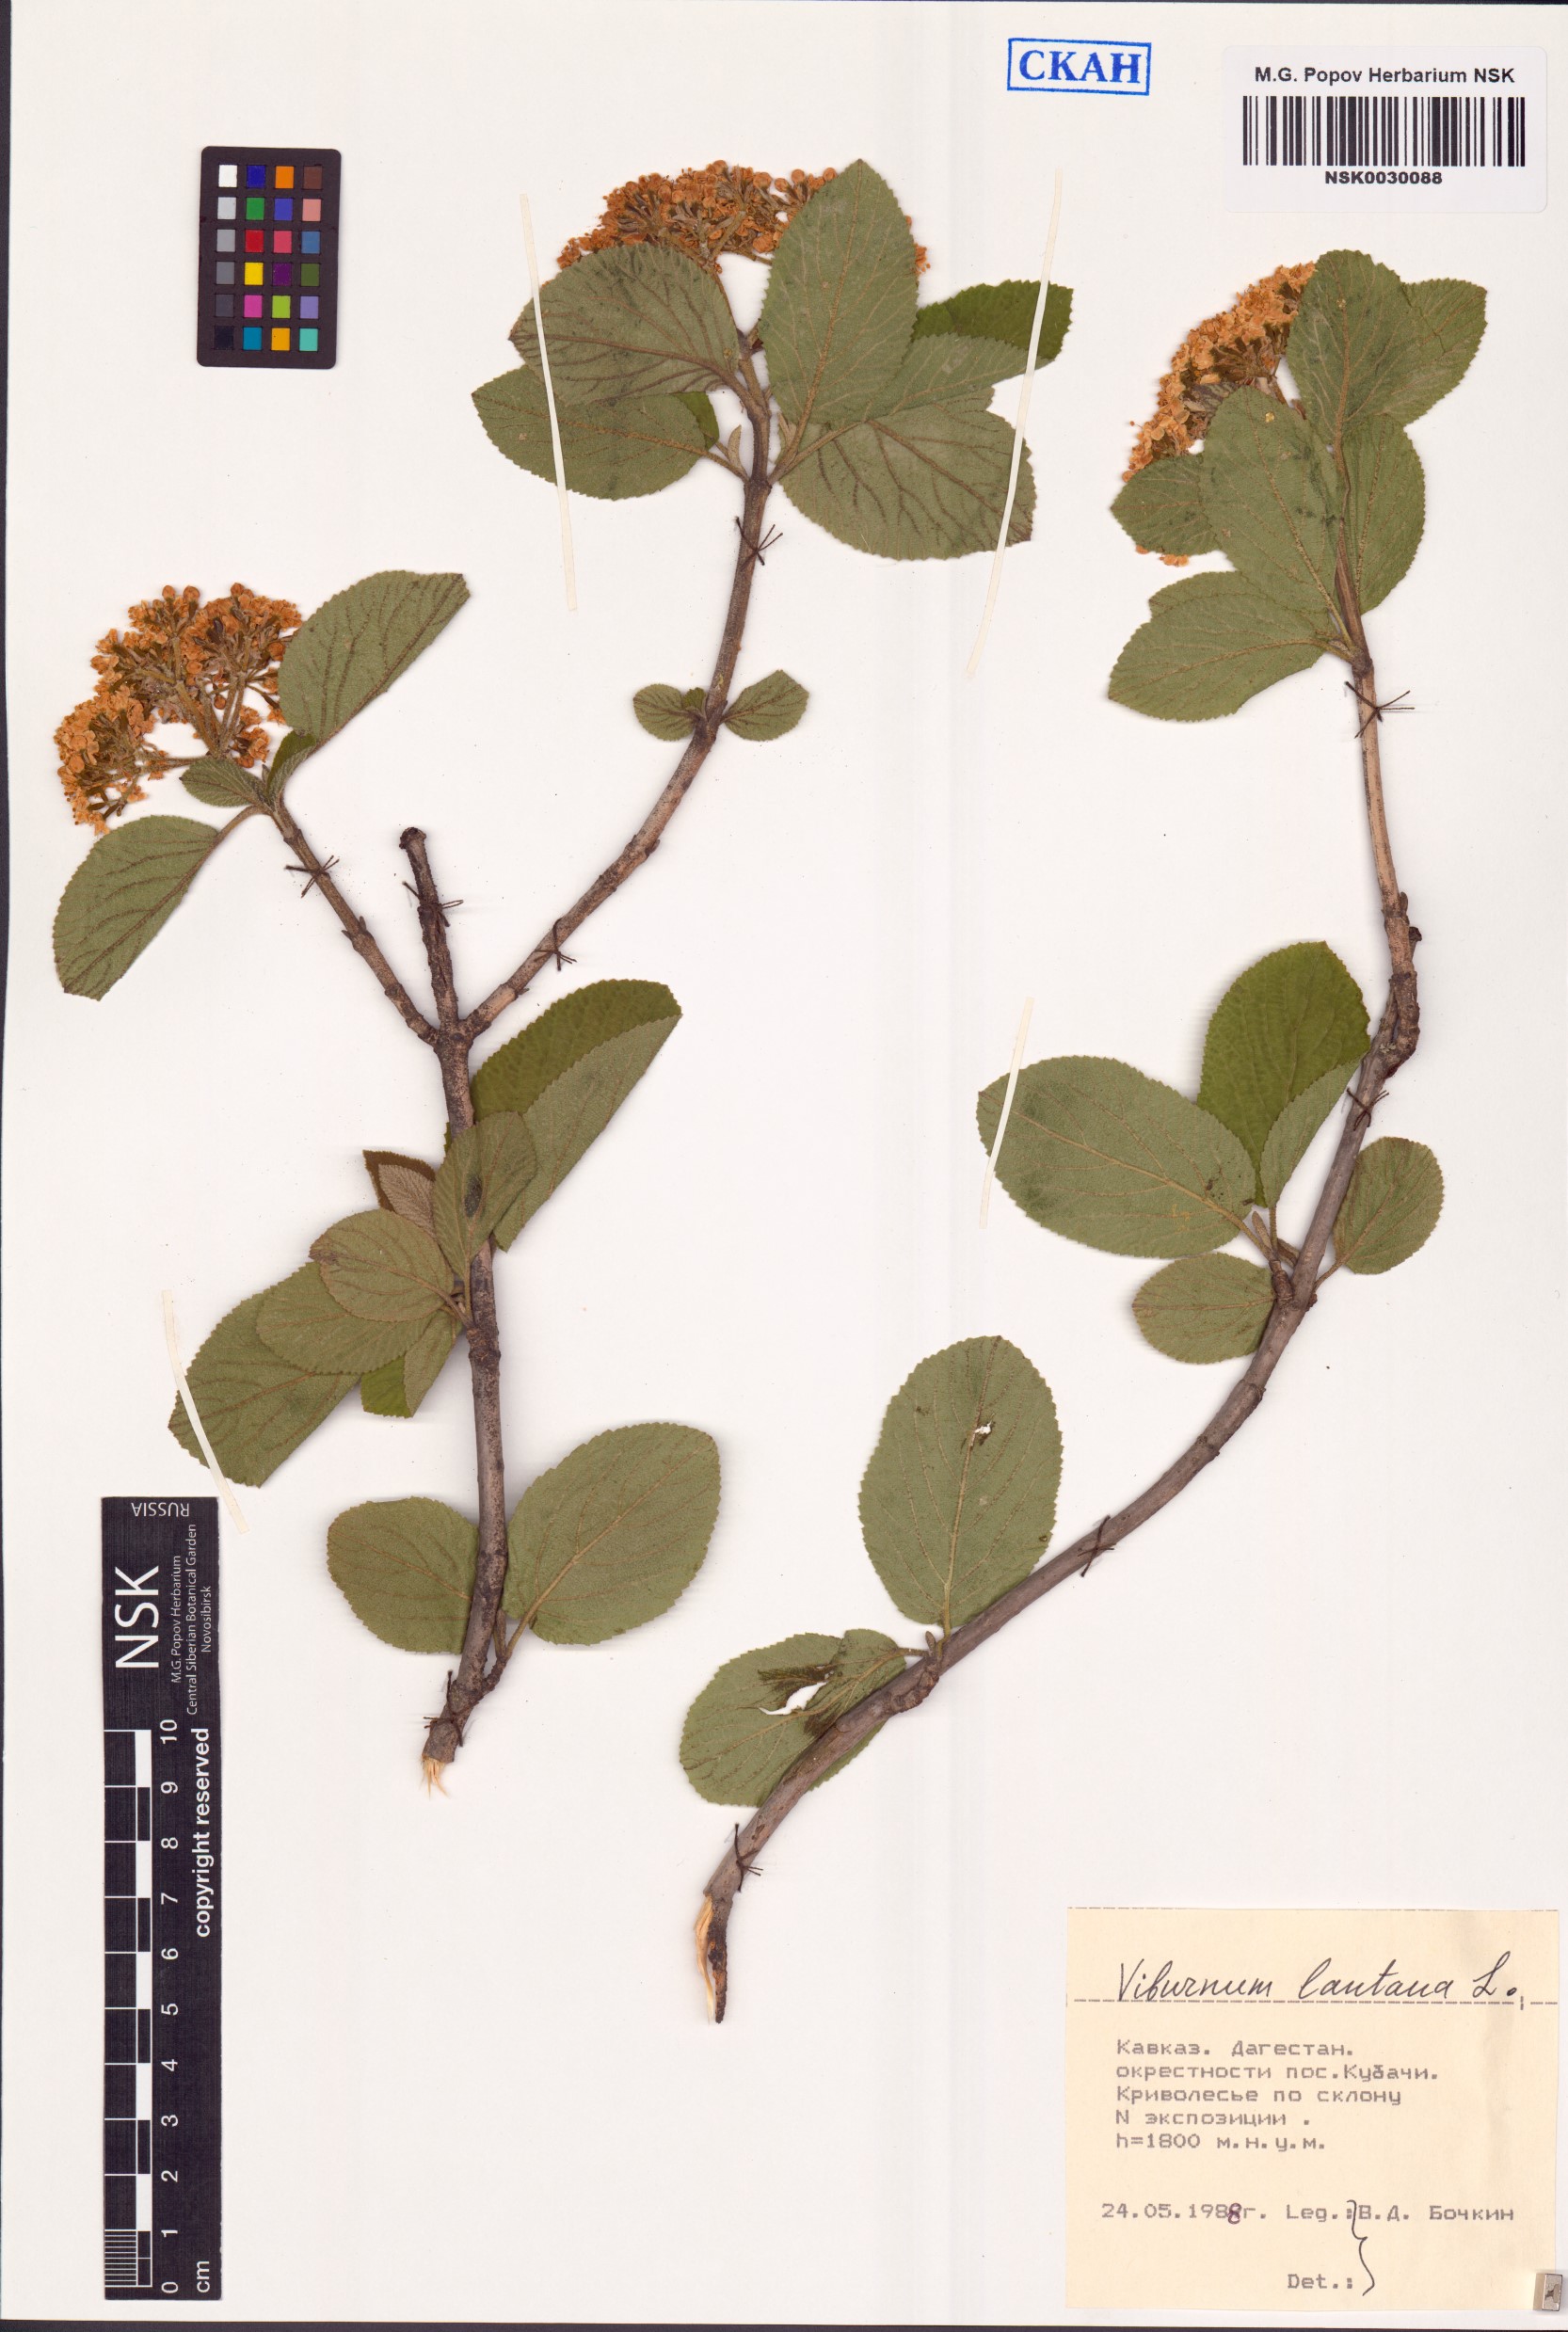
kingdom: Plantae
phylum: Tracheophyta
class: Magnoliopsida
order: Dipsacales
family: Viburnaceae
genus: Viburnum
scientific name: Viburnum lantana
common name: Wayfaring tree
